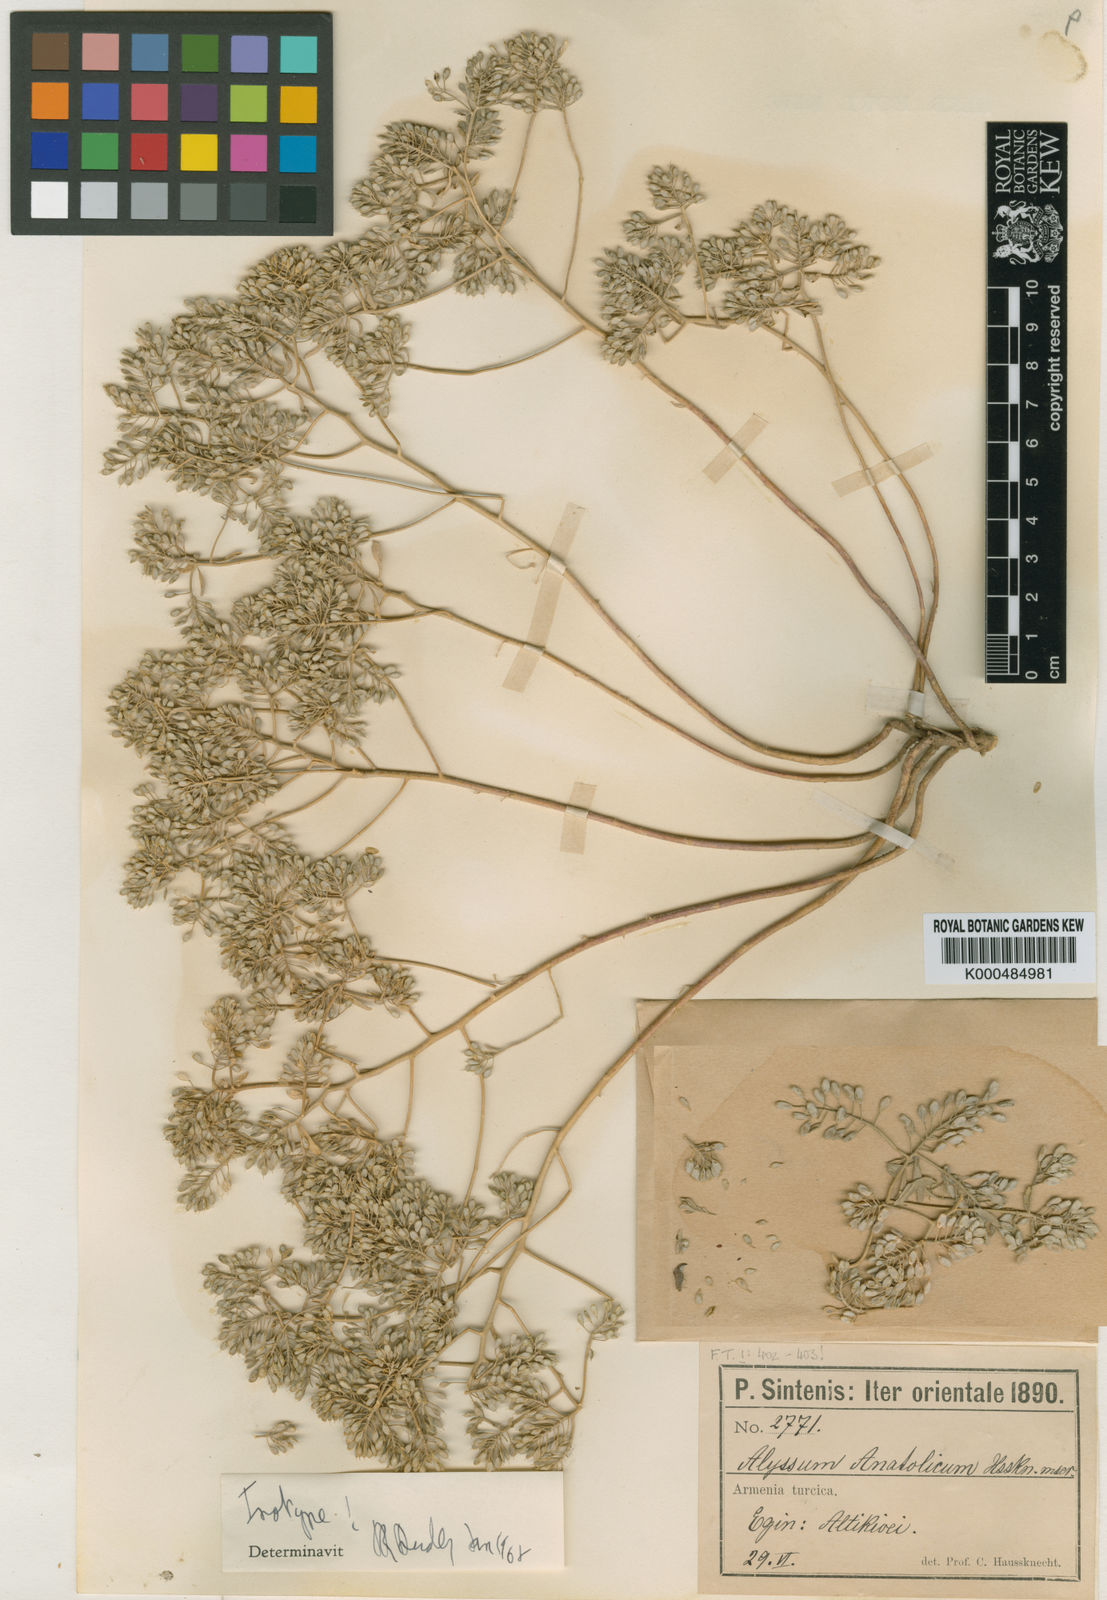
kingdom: Plantae
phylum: Tracheophyta
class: Magnoliopsida
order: Brassicales
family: Brassicaceae
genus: Odontarrhena
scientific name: Odontarrhena anatolica
